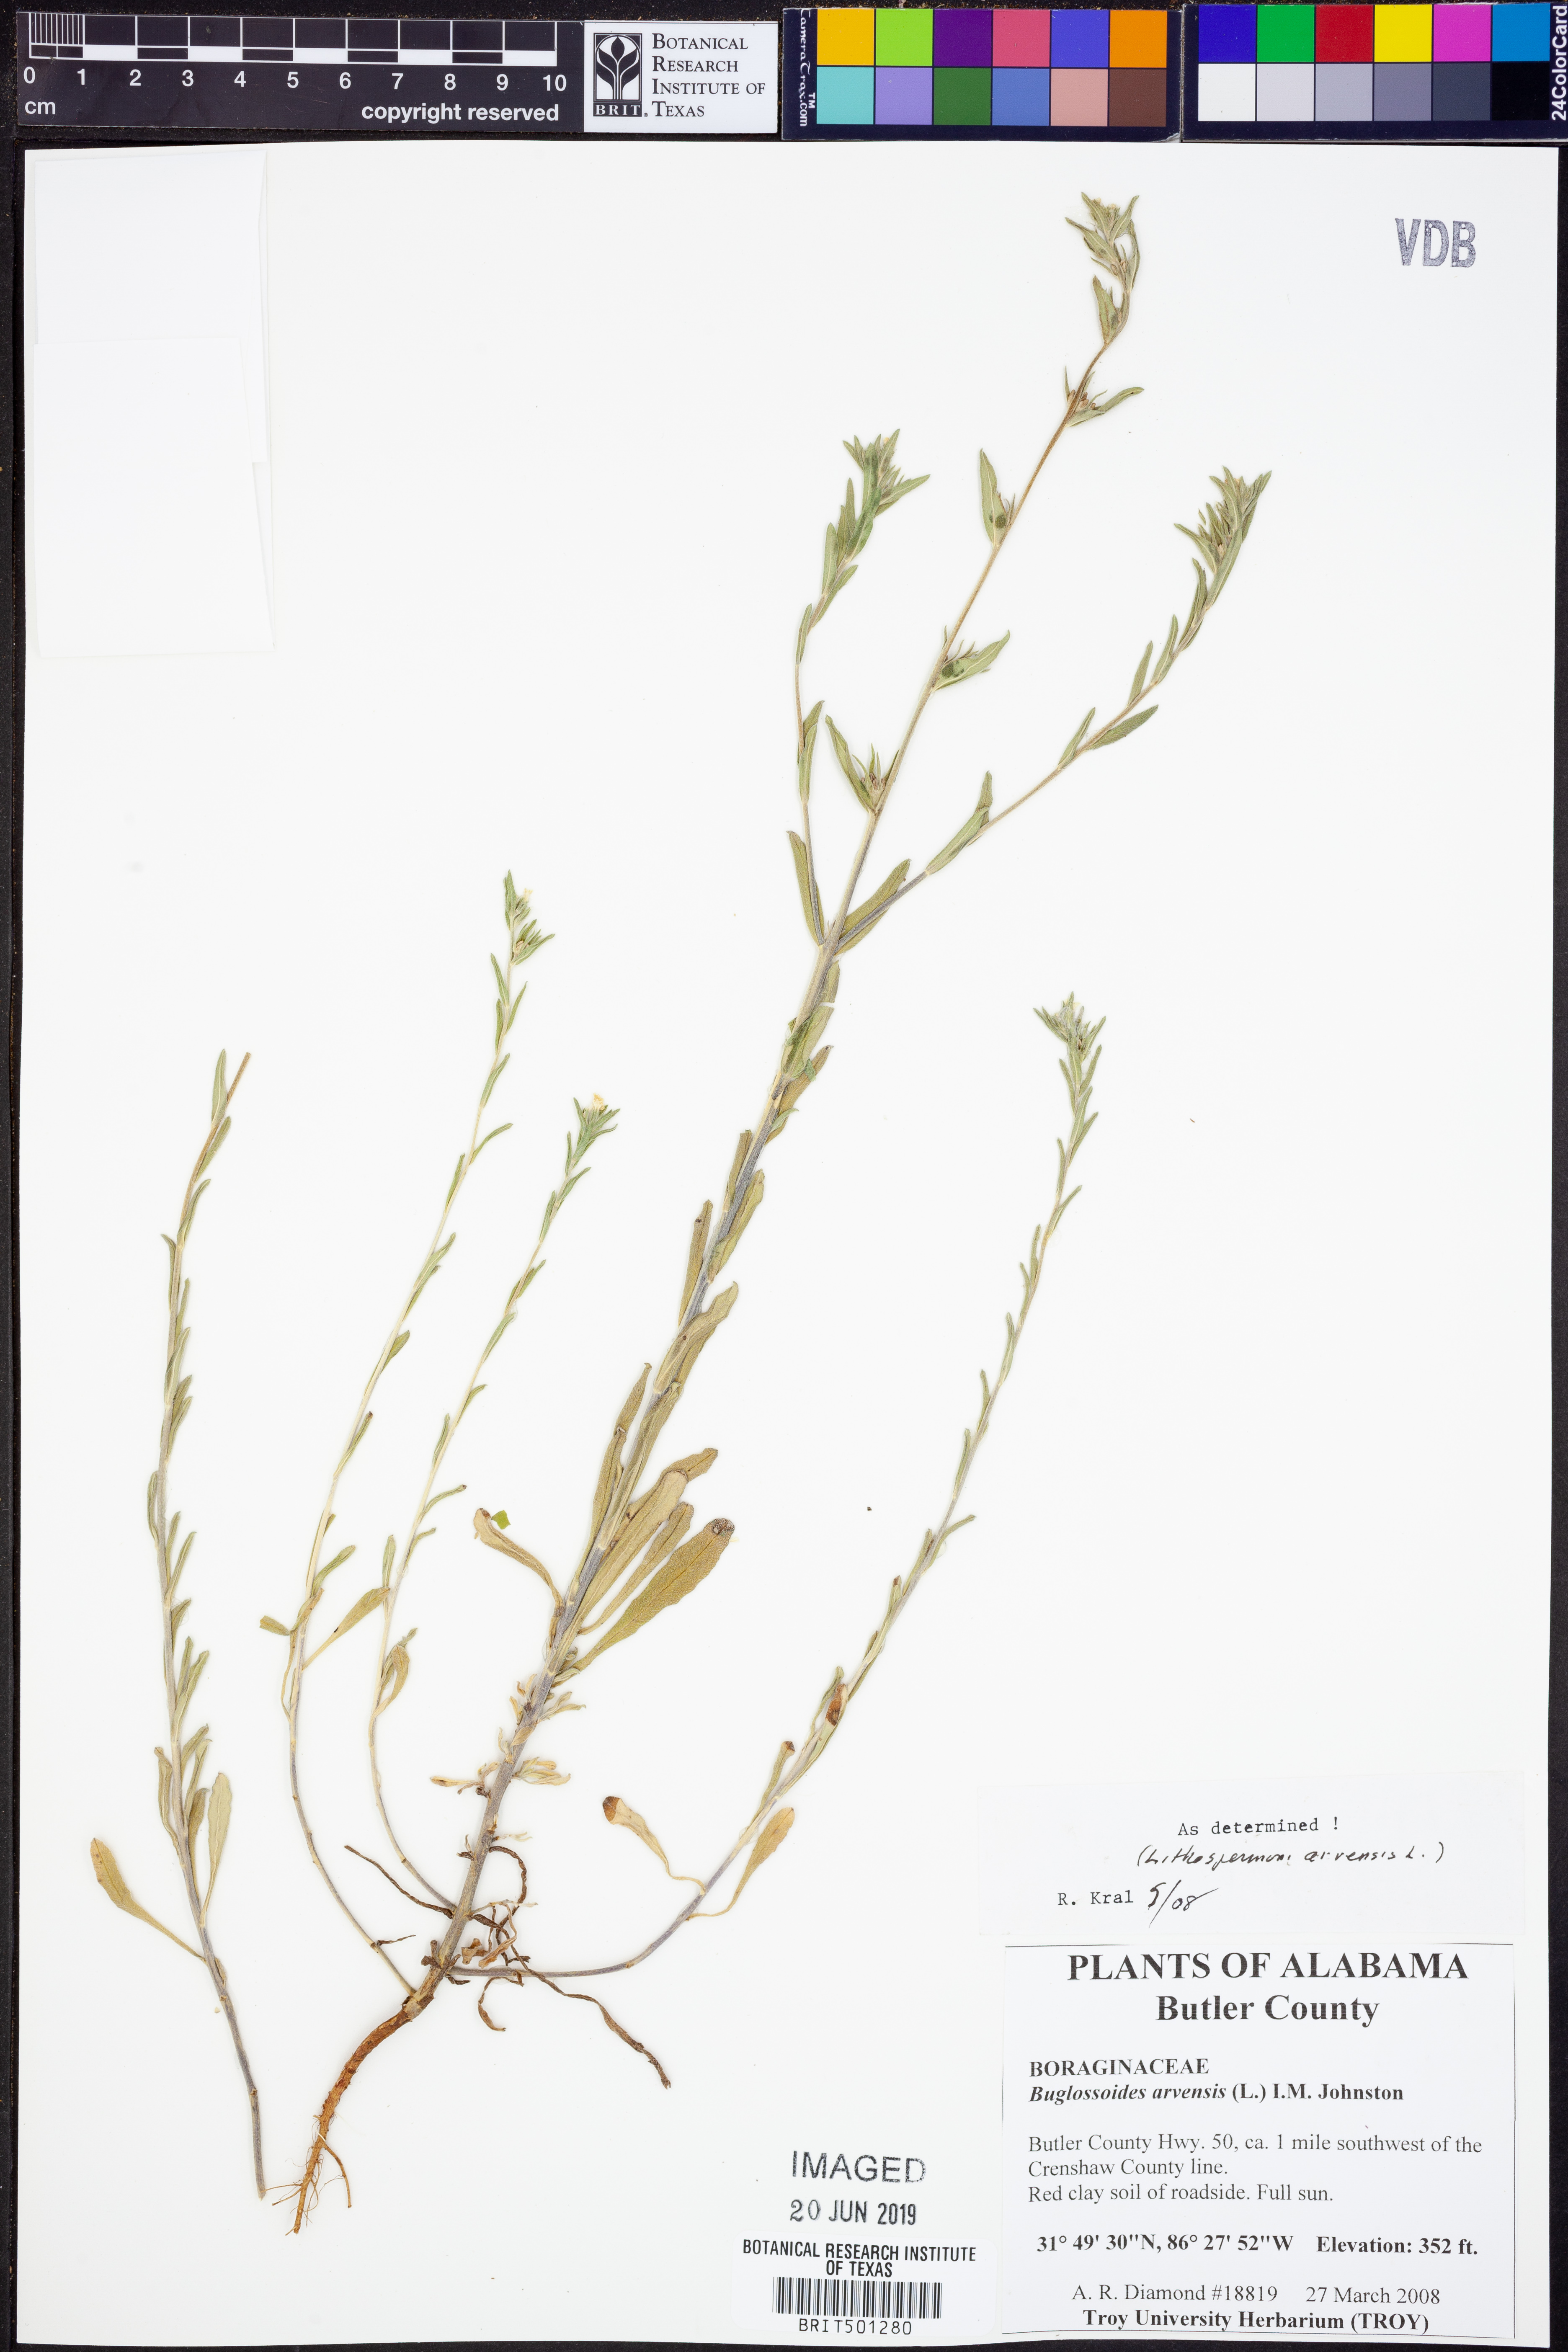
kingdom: Plantae
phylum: Tracheophyta
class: Magnoliopsida
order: Boraginales
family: Boraginaceae
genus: Lithospermum
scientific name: Lithospermum erythrorhizon
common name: Purple gromwell
